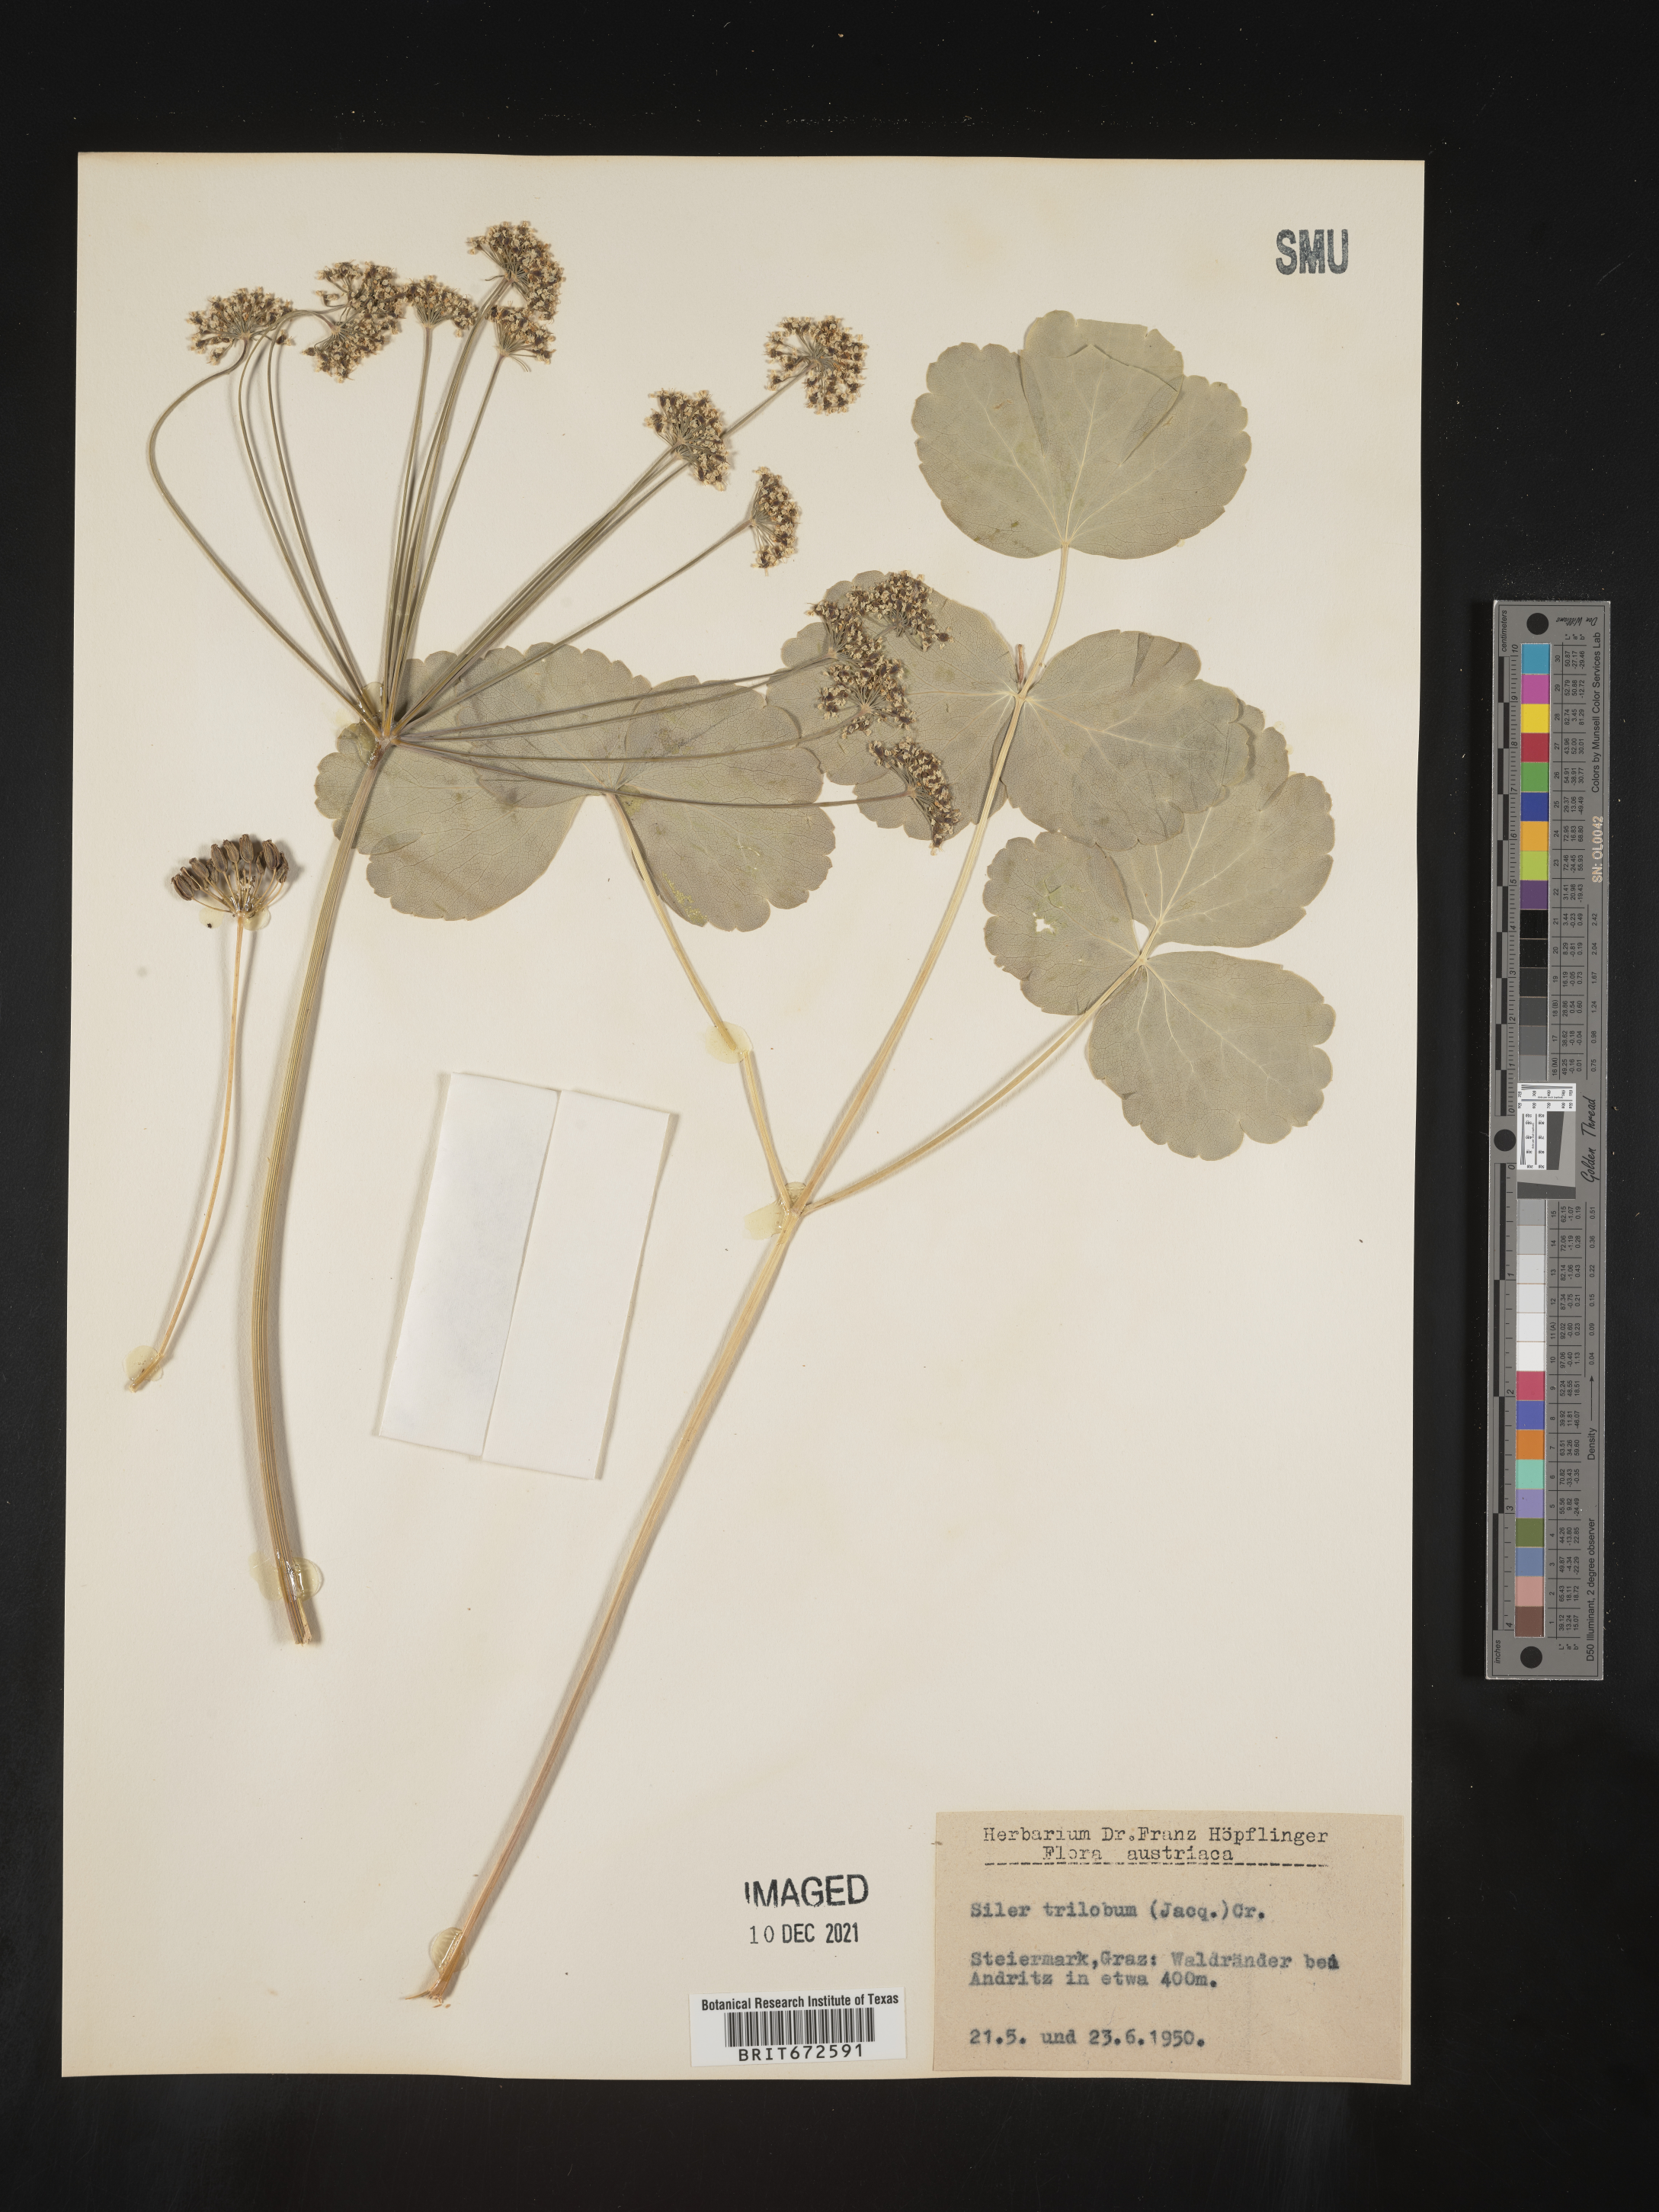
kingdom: Plantae
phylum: Tracheophyta
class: Magnoliopsida
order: Apiales
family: Apiaceae
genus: Siler
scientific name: Siler
